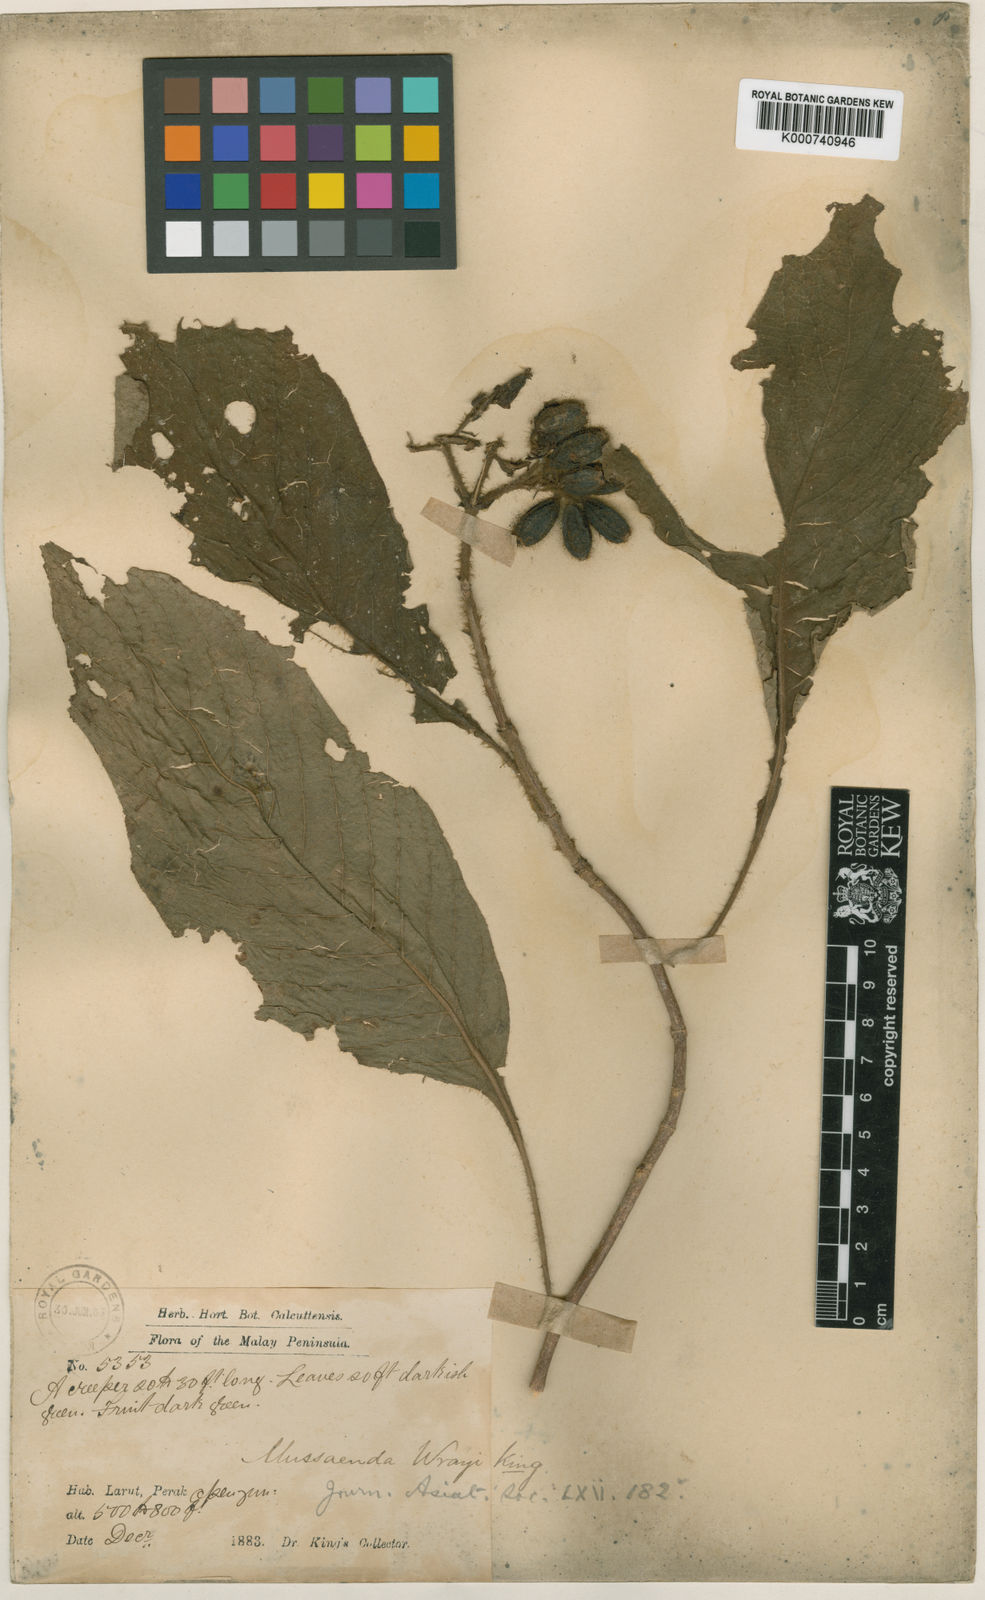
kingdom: Plantae
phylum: Tracheophyta
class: Magnoliopsida
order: Gentianales
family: Rubiaceae
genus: Mussaenda
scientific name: Mussaenda wrayi
